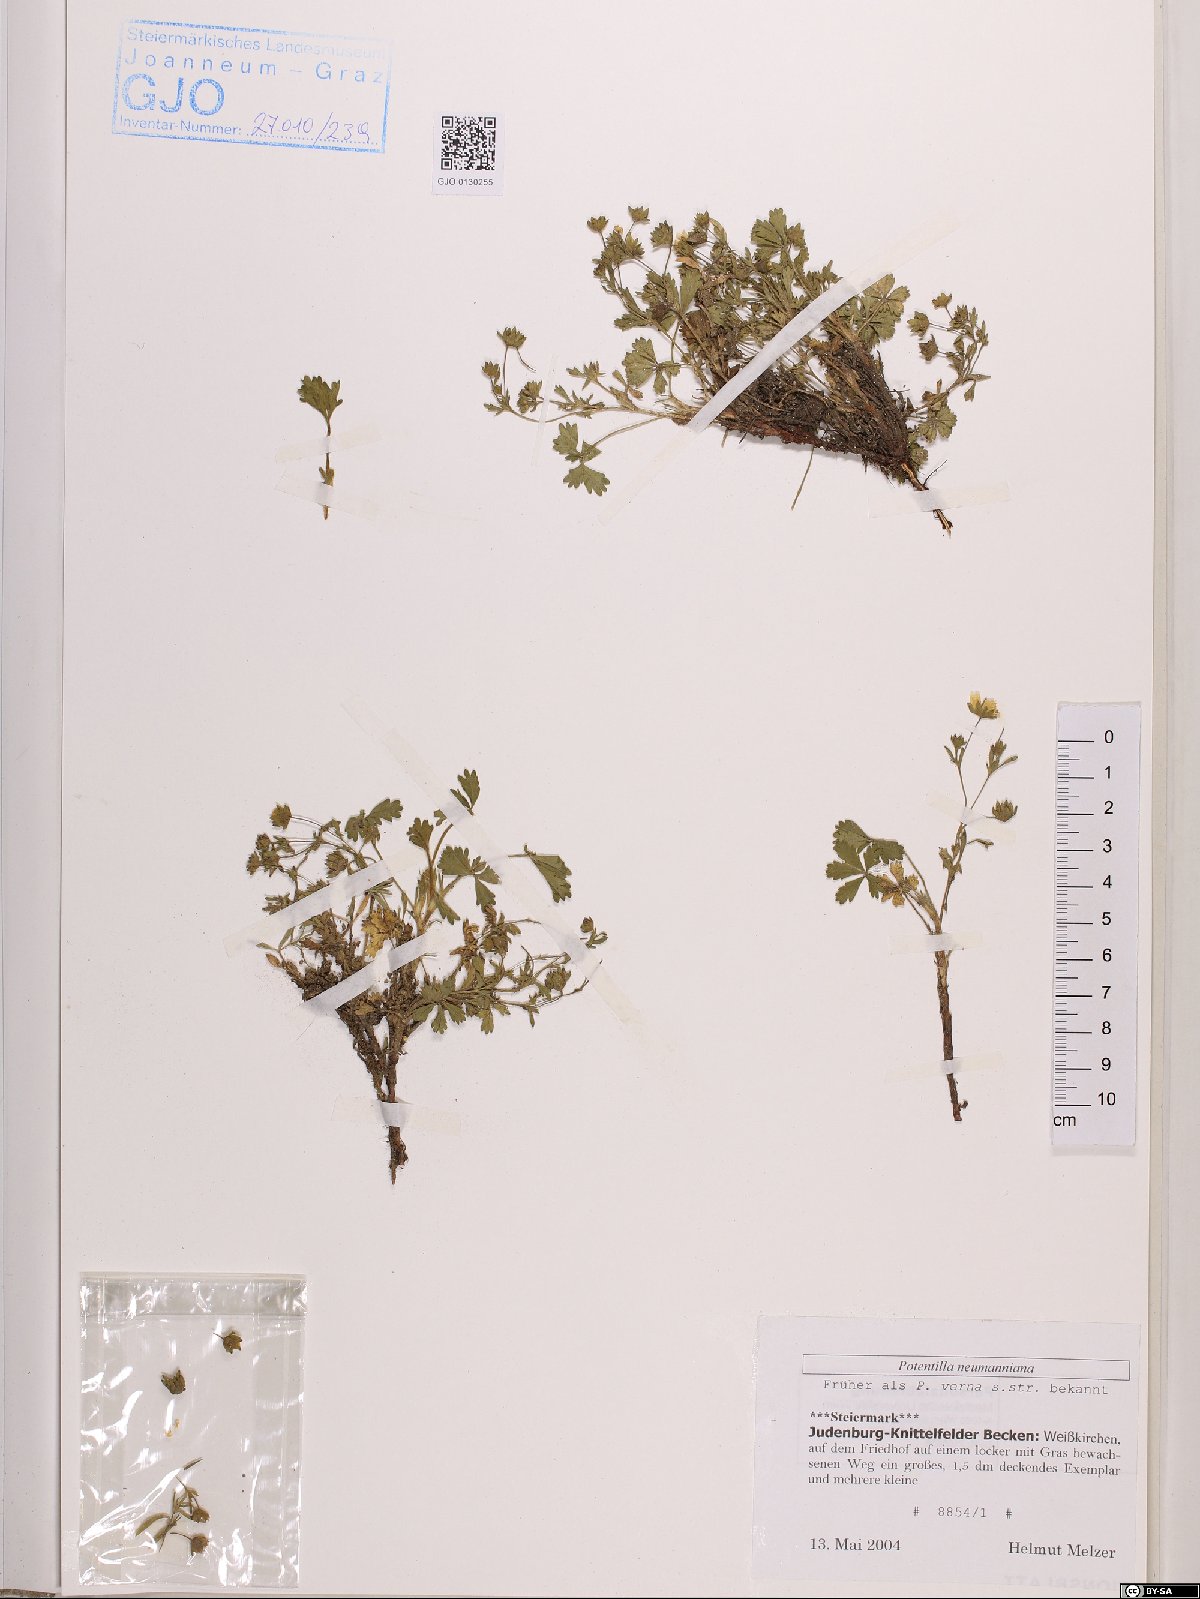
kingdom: Plantae
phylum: Tracheophyta
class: Magnoliopsida
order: Rosales
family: Rosaceae
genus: Potentilla
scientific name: Potentilla verna
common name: Spring cinquefoil
